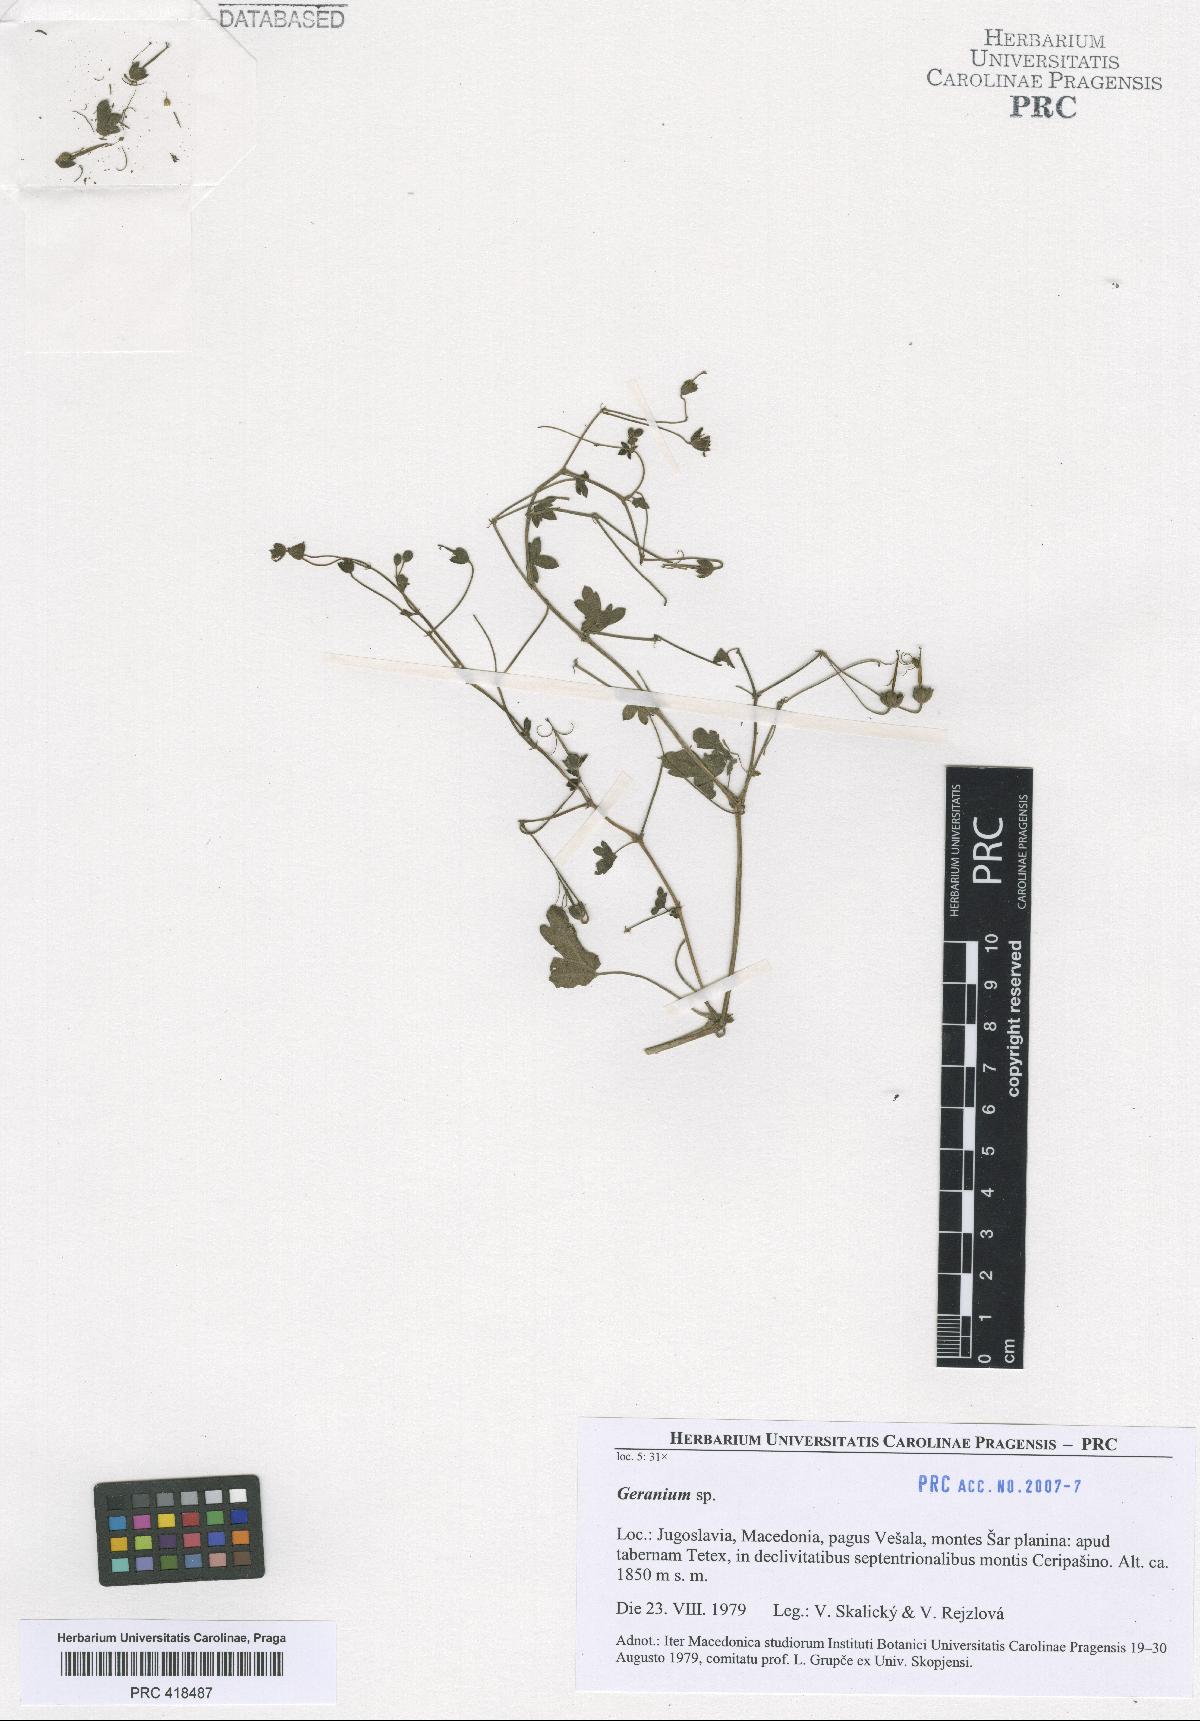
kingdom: Plantae
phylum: Tracheophyta
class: Magnoliopsida
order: Geraniales
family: Geraniaceae
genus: Geranium
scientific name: Geranium pyrenaicum
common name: Hedgerow crane's-bill
